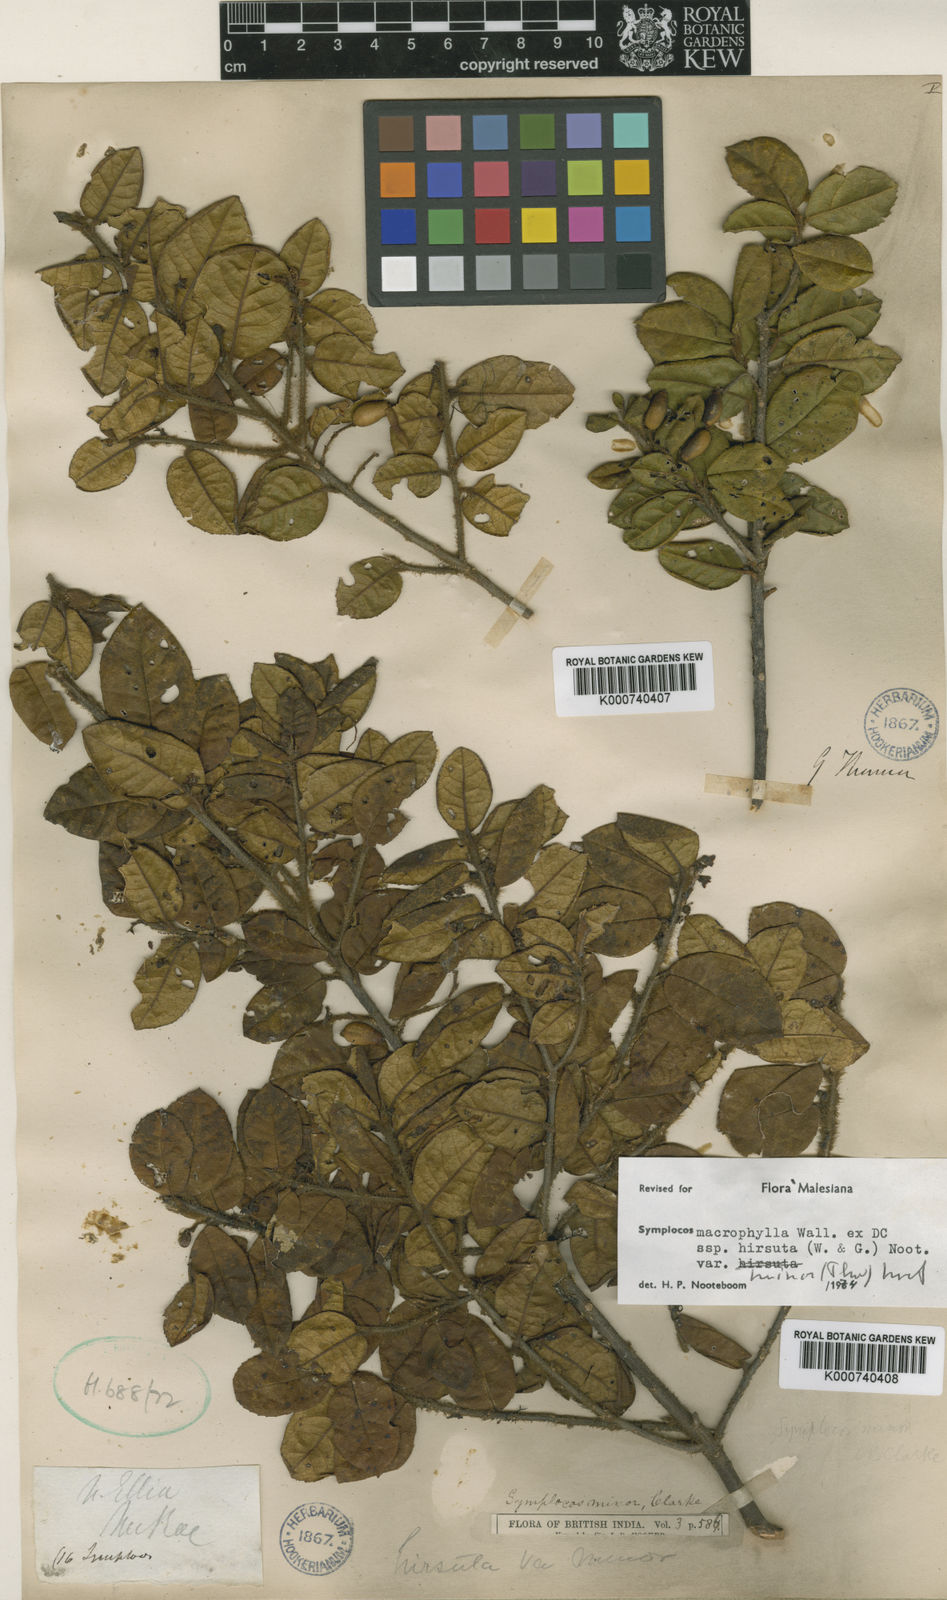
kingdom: Plantae
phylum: Tracheophyta
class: Magnoliopsida
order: Ericales
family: Symplocaceae
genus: Symplocos
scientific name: Symplocos
